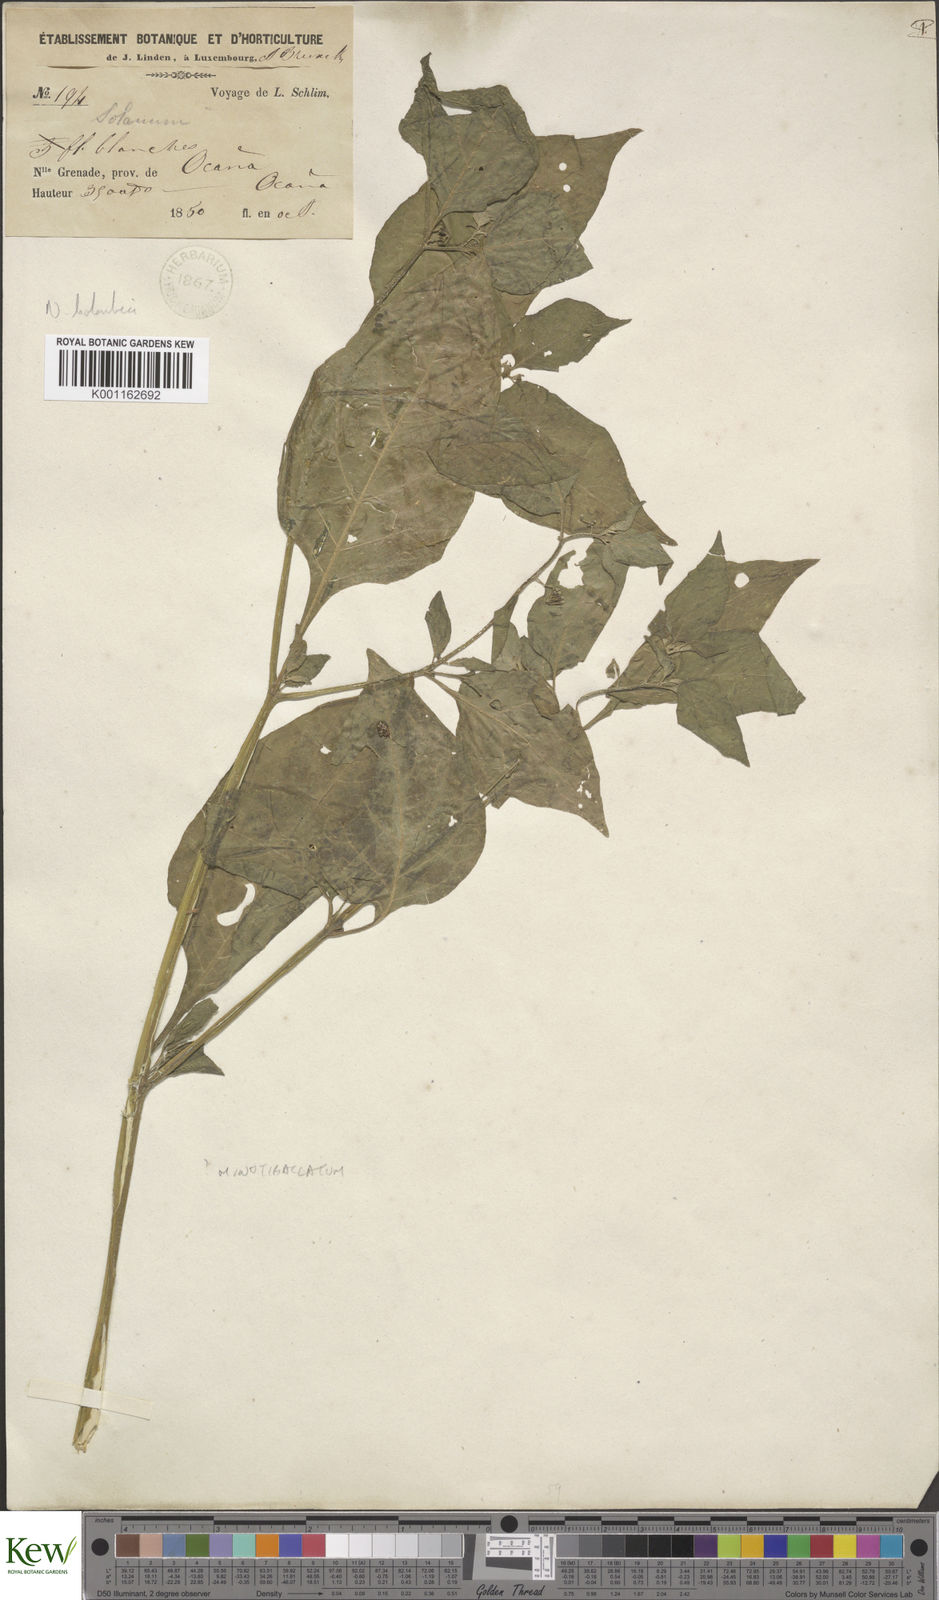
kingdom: Plantae
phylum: Tracheophyta
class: Magnoliopsida
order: Solanales
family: Solanaceae
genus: Solanum
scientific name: Solanum americanum
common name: American black nightshade
